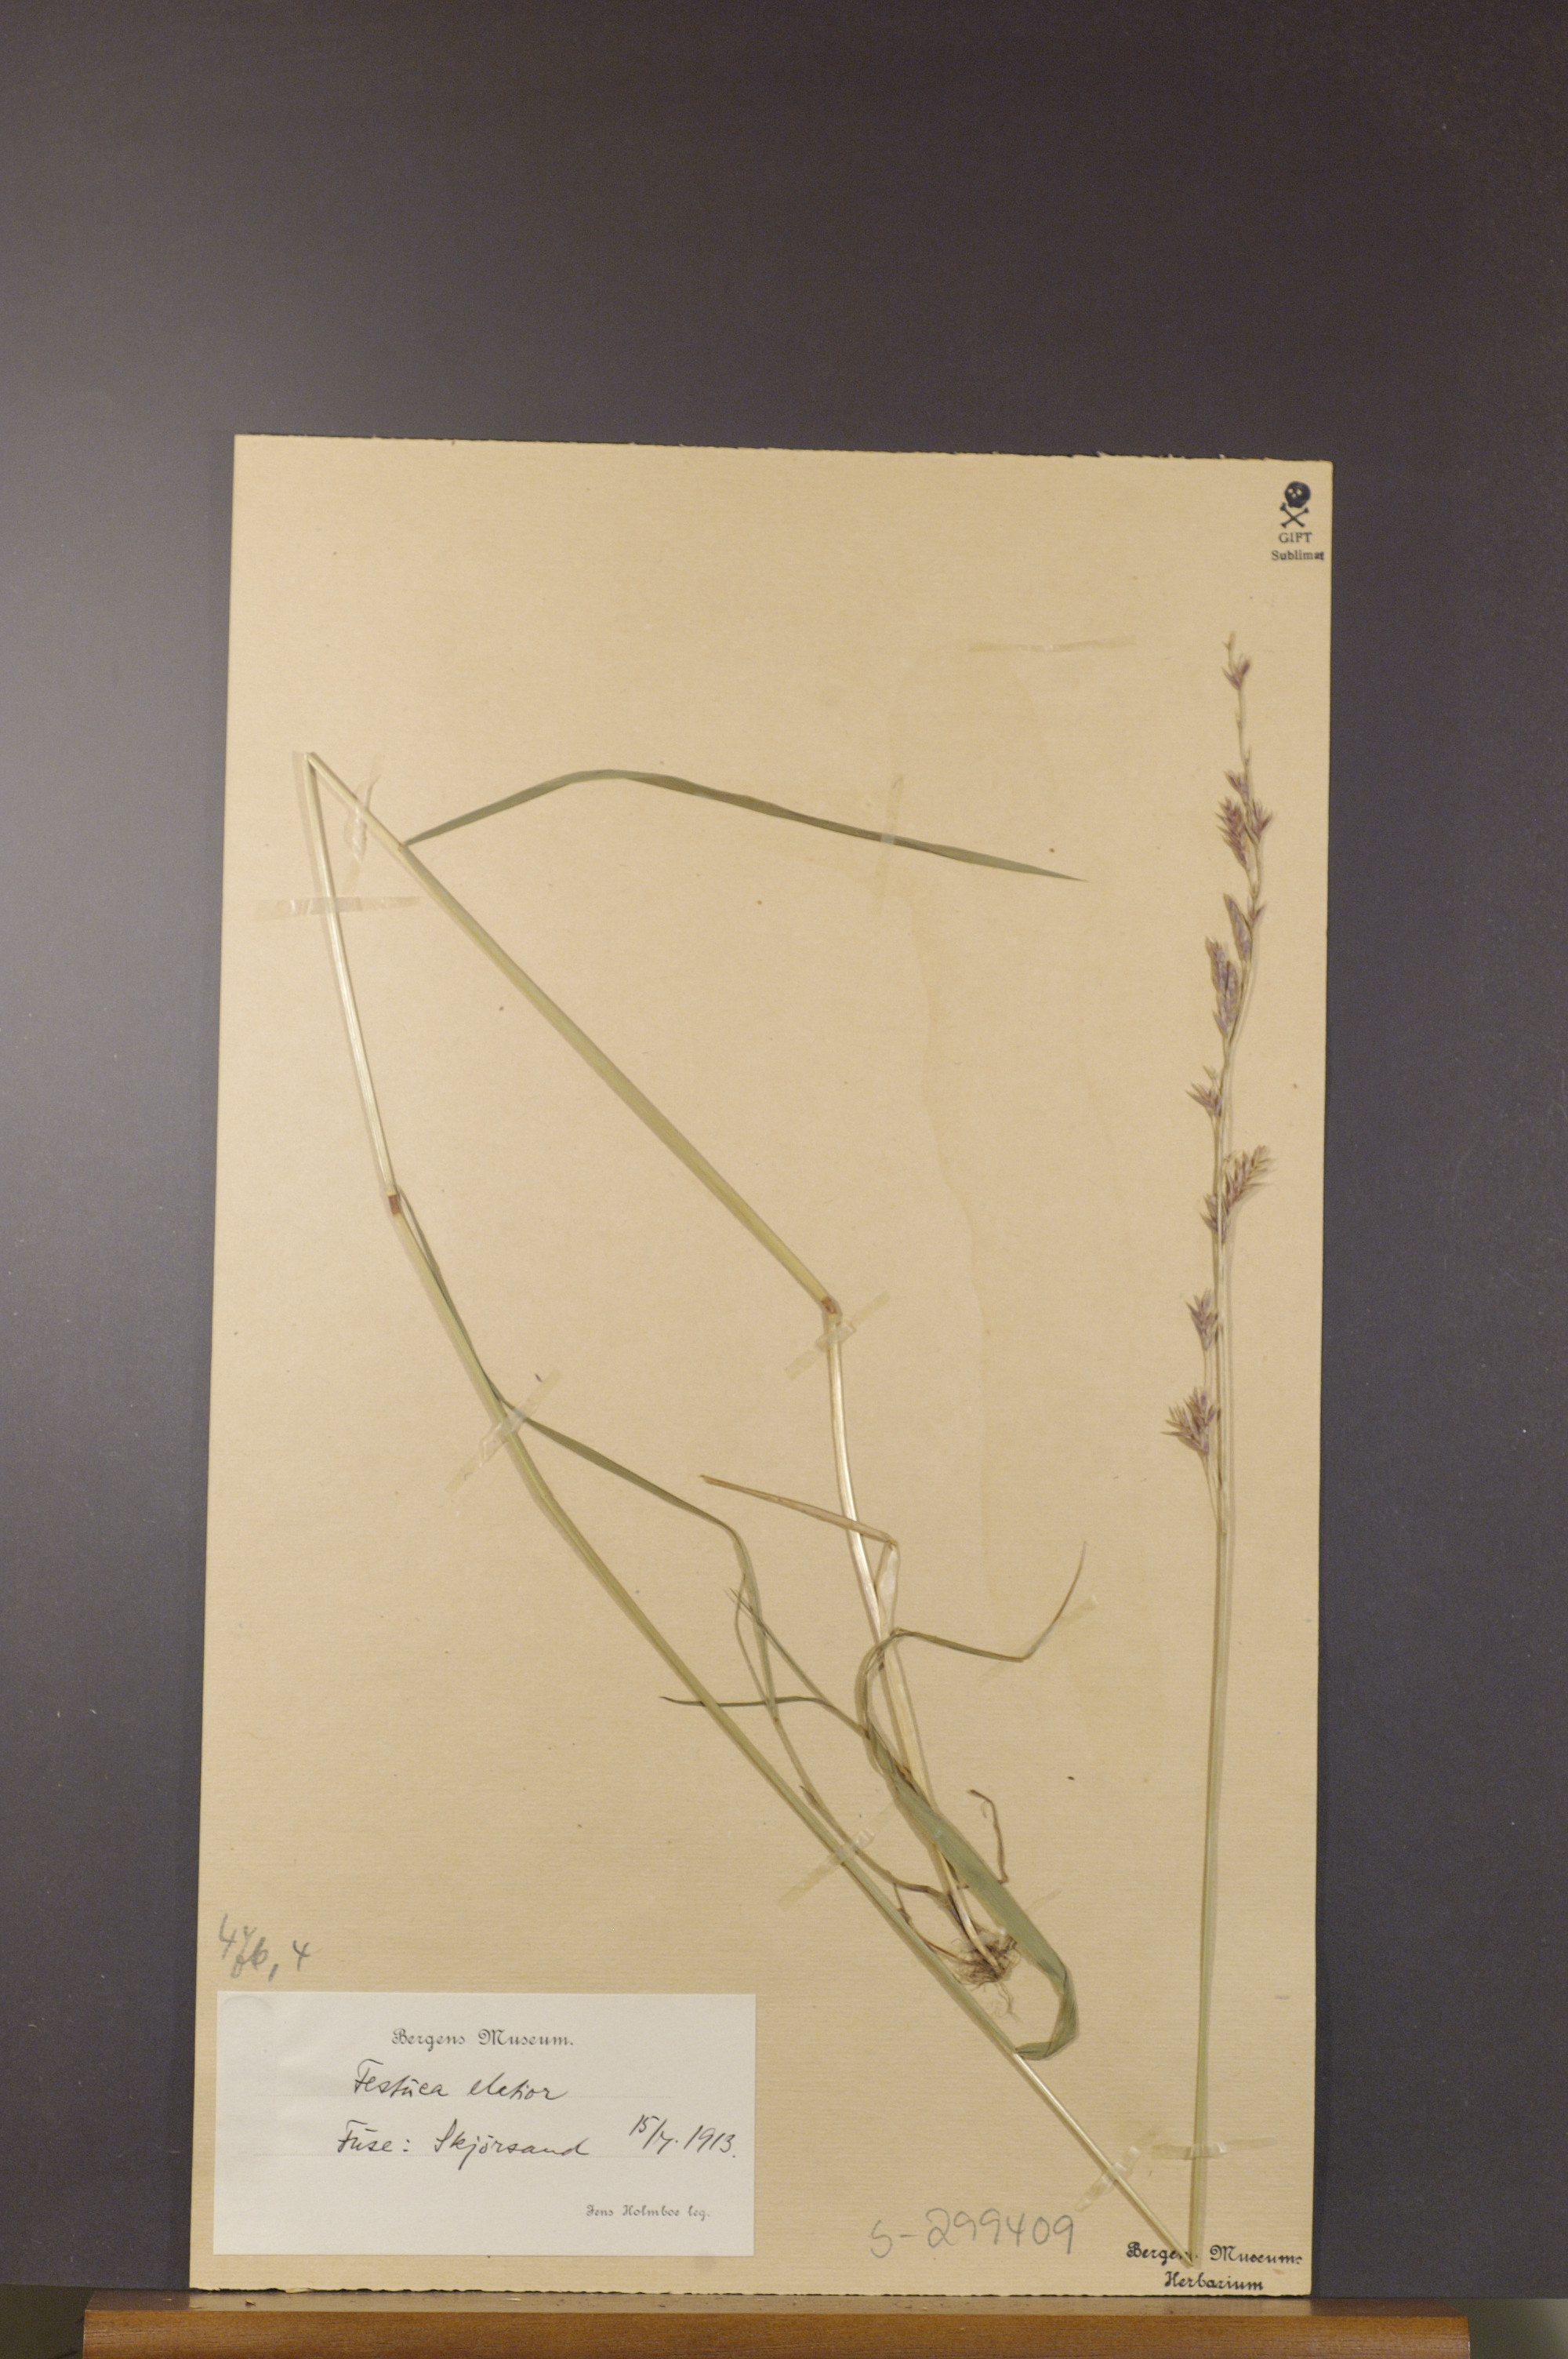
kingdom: Plantae
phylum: Tracheophyta
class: Liliopsida
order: Poales
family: Poaceae
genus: Lolium
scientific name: Lolium arundinaceum
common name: Reed fescue
